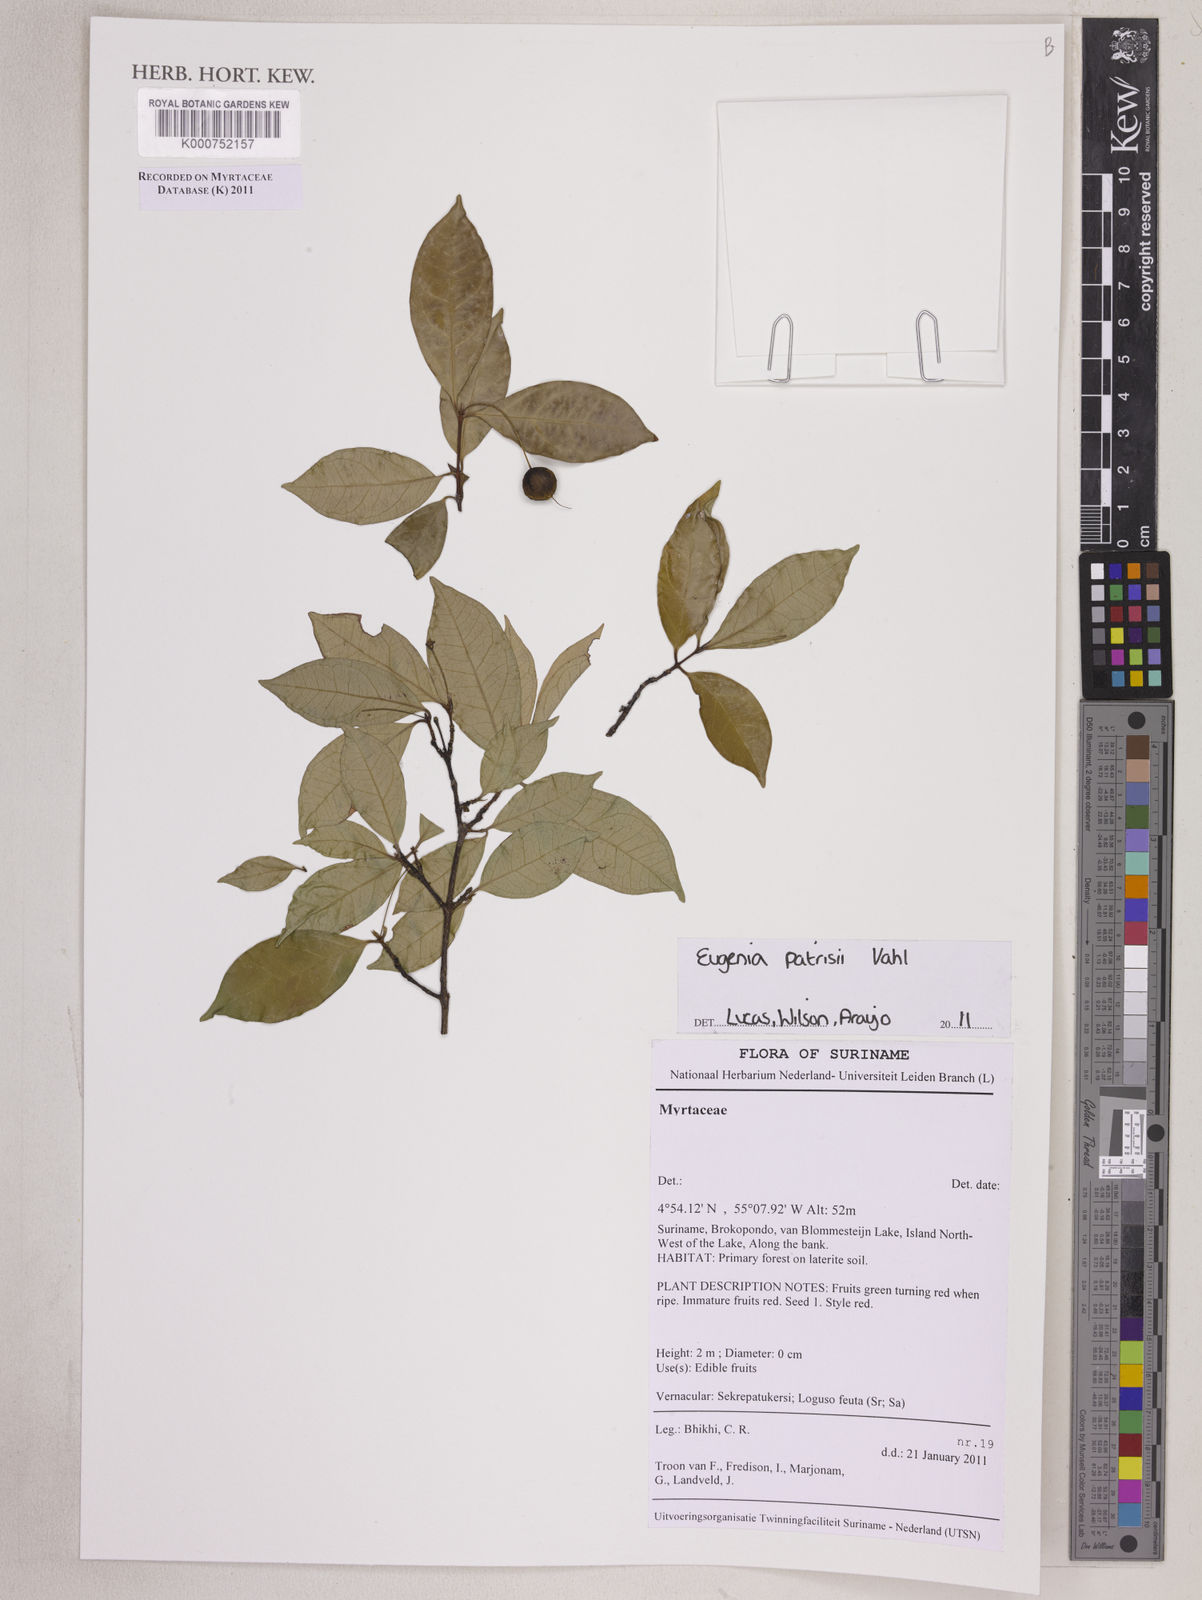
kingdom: Plantae
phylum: Tracheophyta
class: Magnoliopsida
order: Myrtales
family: Myrtaceae
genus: Eugenia
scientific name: Eugenia patrisii
